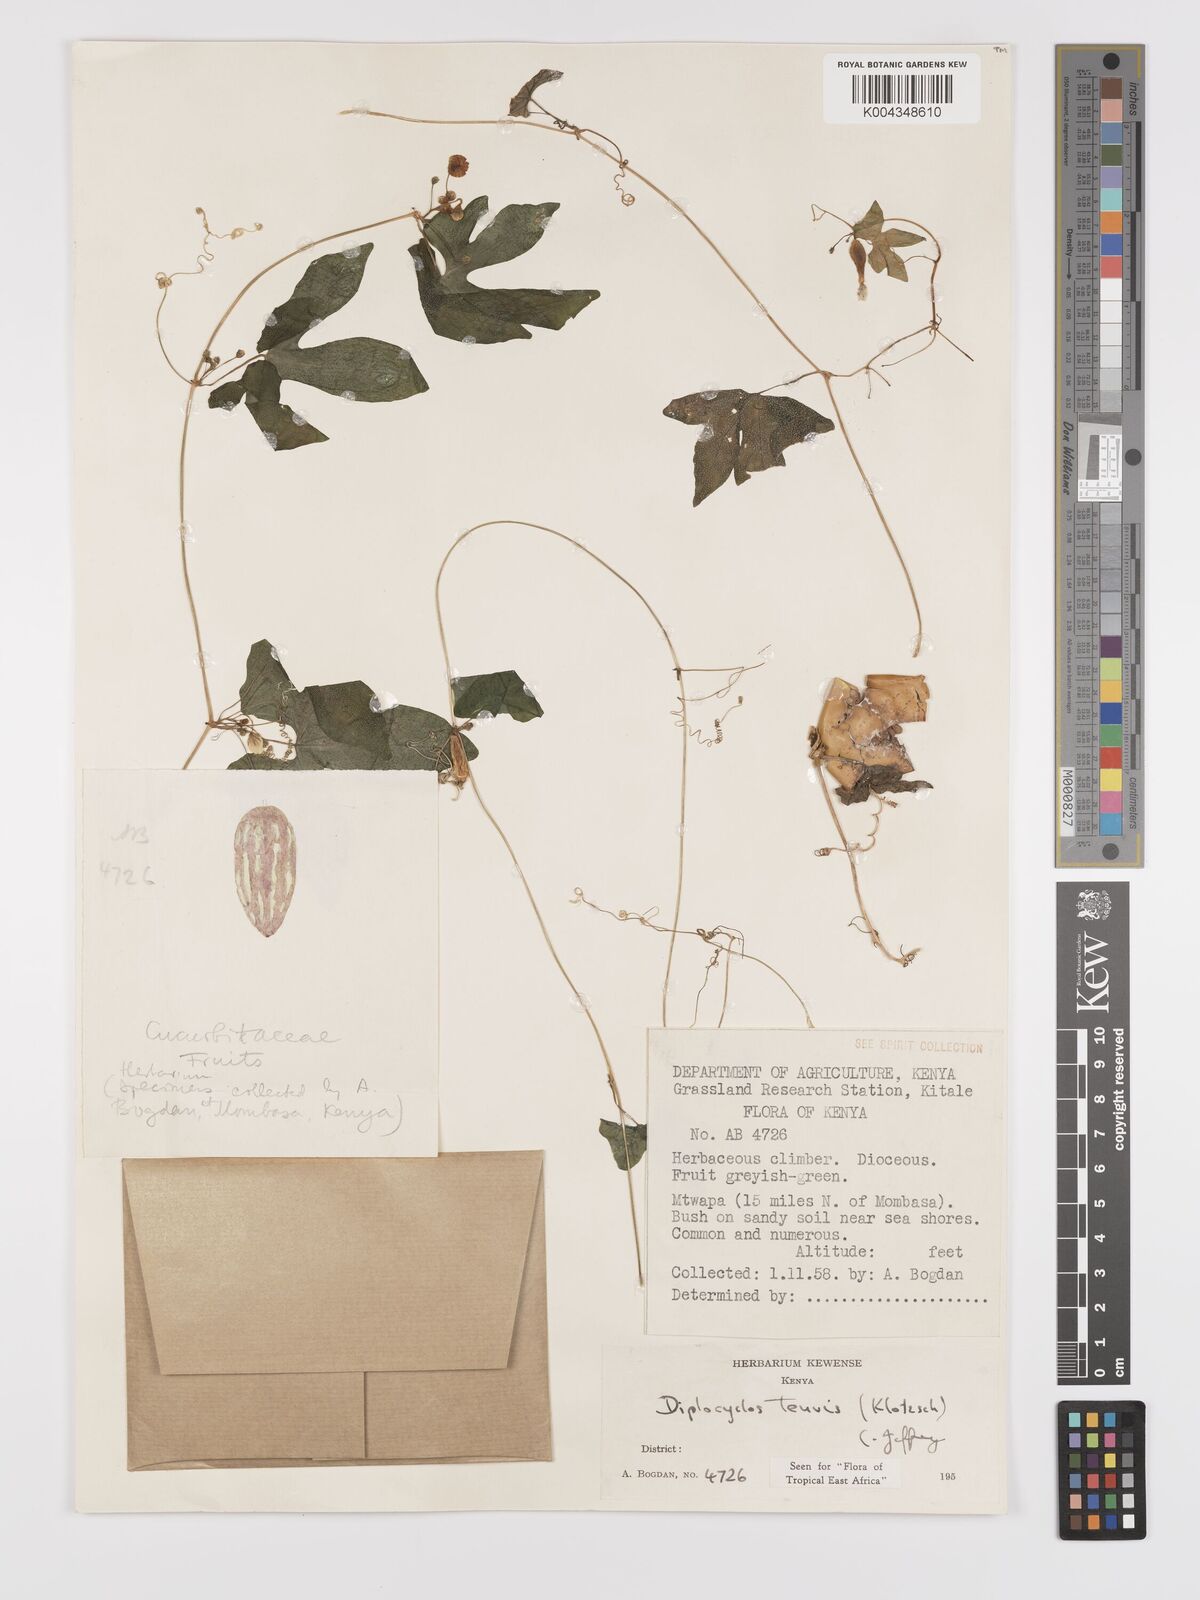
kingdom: Plantae
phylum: Tracheophyta
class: Magnoliopsida
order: Cucurbitales
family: Cucurbitaceae
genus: Diplocyclos
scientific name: Diplocyclos tenuis
